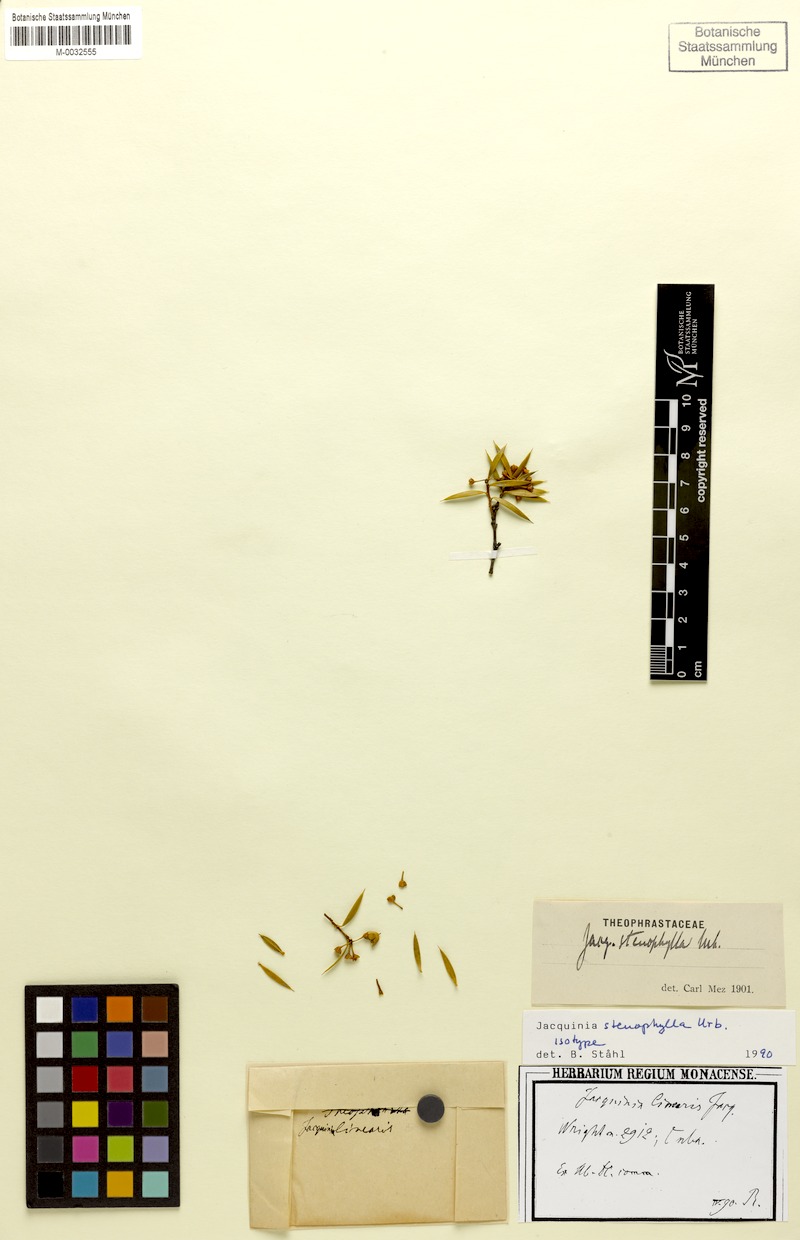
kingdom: Plantae
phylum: Tracheophyta
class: Magnoliopsida
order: Ericales
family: Primulaceae
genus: Bonellia
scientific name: Bonellia stenophylla
